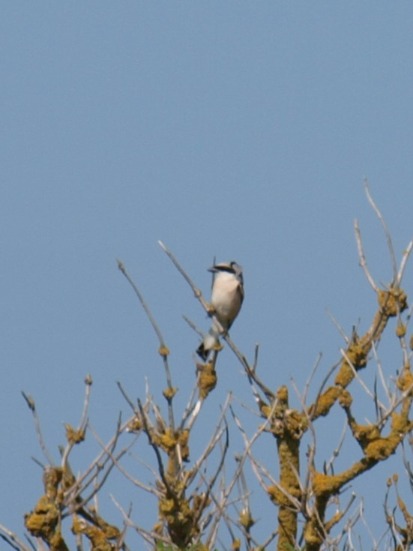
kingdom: Animalia
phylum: Chordata
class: Aves
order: Passeriformes
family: Laniidae
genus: Lanius
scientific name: Lanius collurio
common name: Rødrygget tornskade
